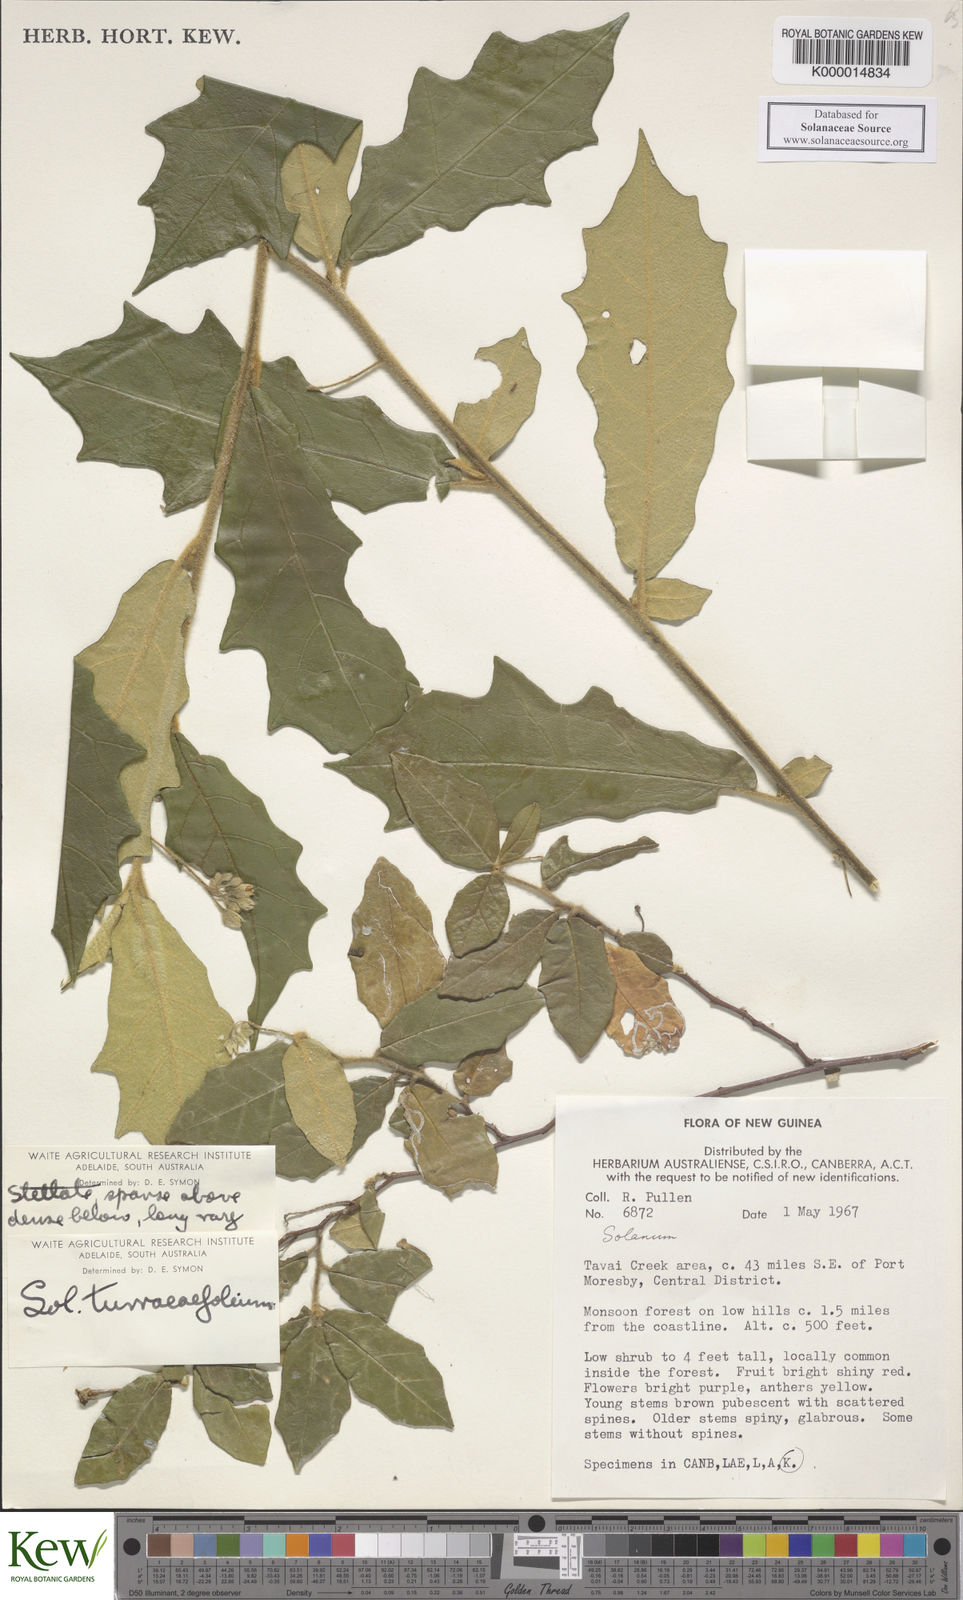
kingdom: Plantae
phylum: Tracheophyta
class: Magnoliopsida
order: Solanales
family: Solanaceae
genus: Solanum
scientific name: Solanum discolor
